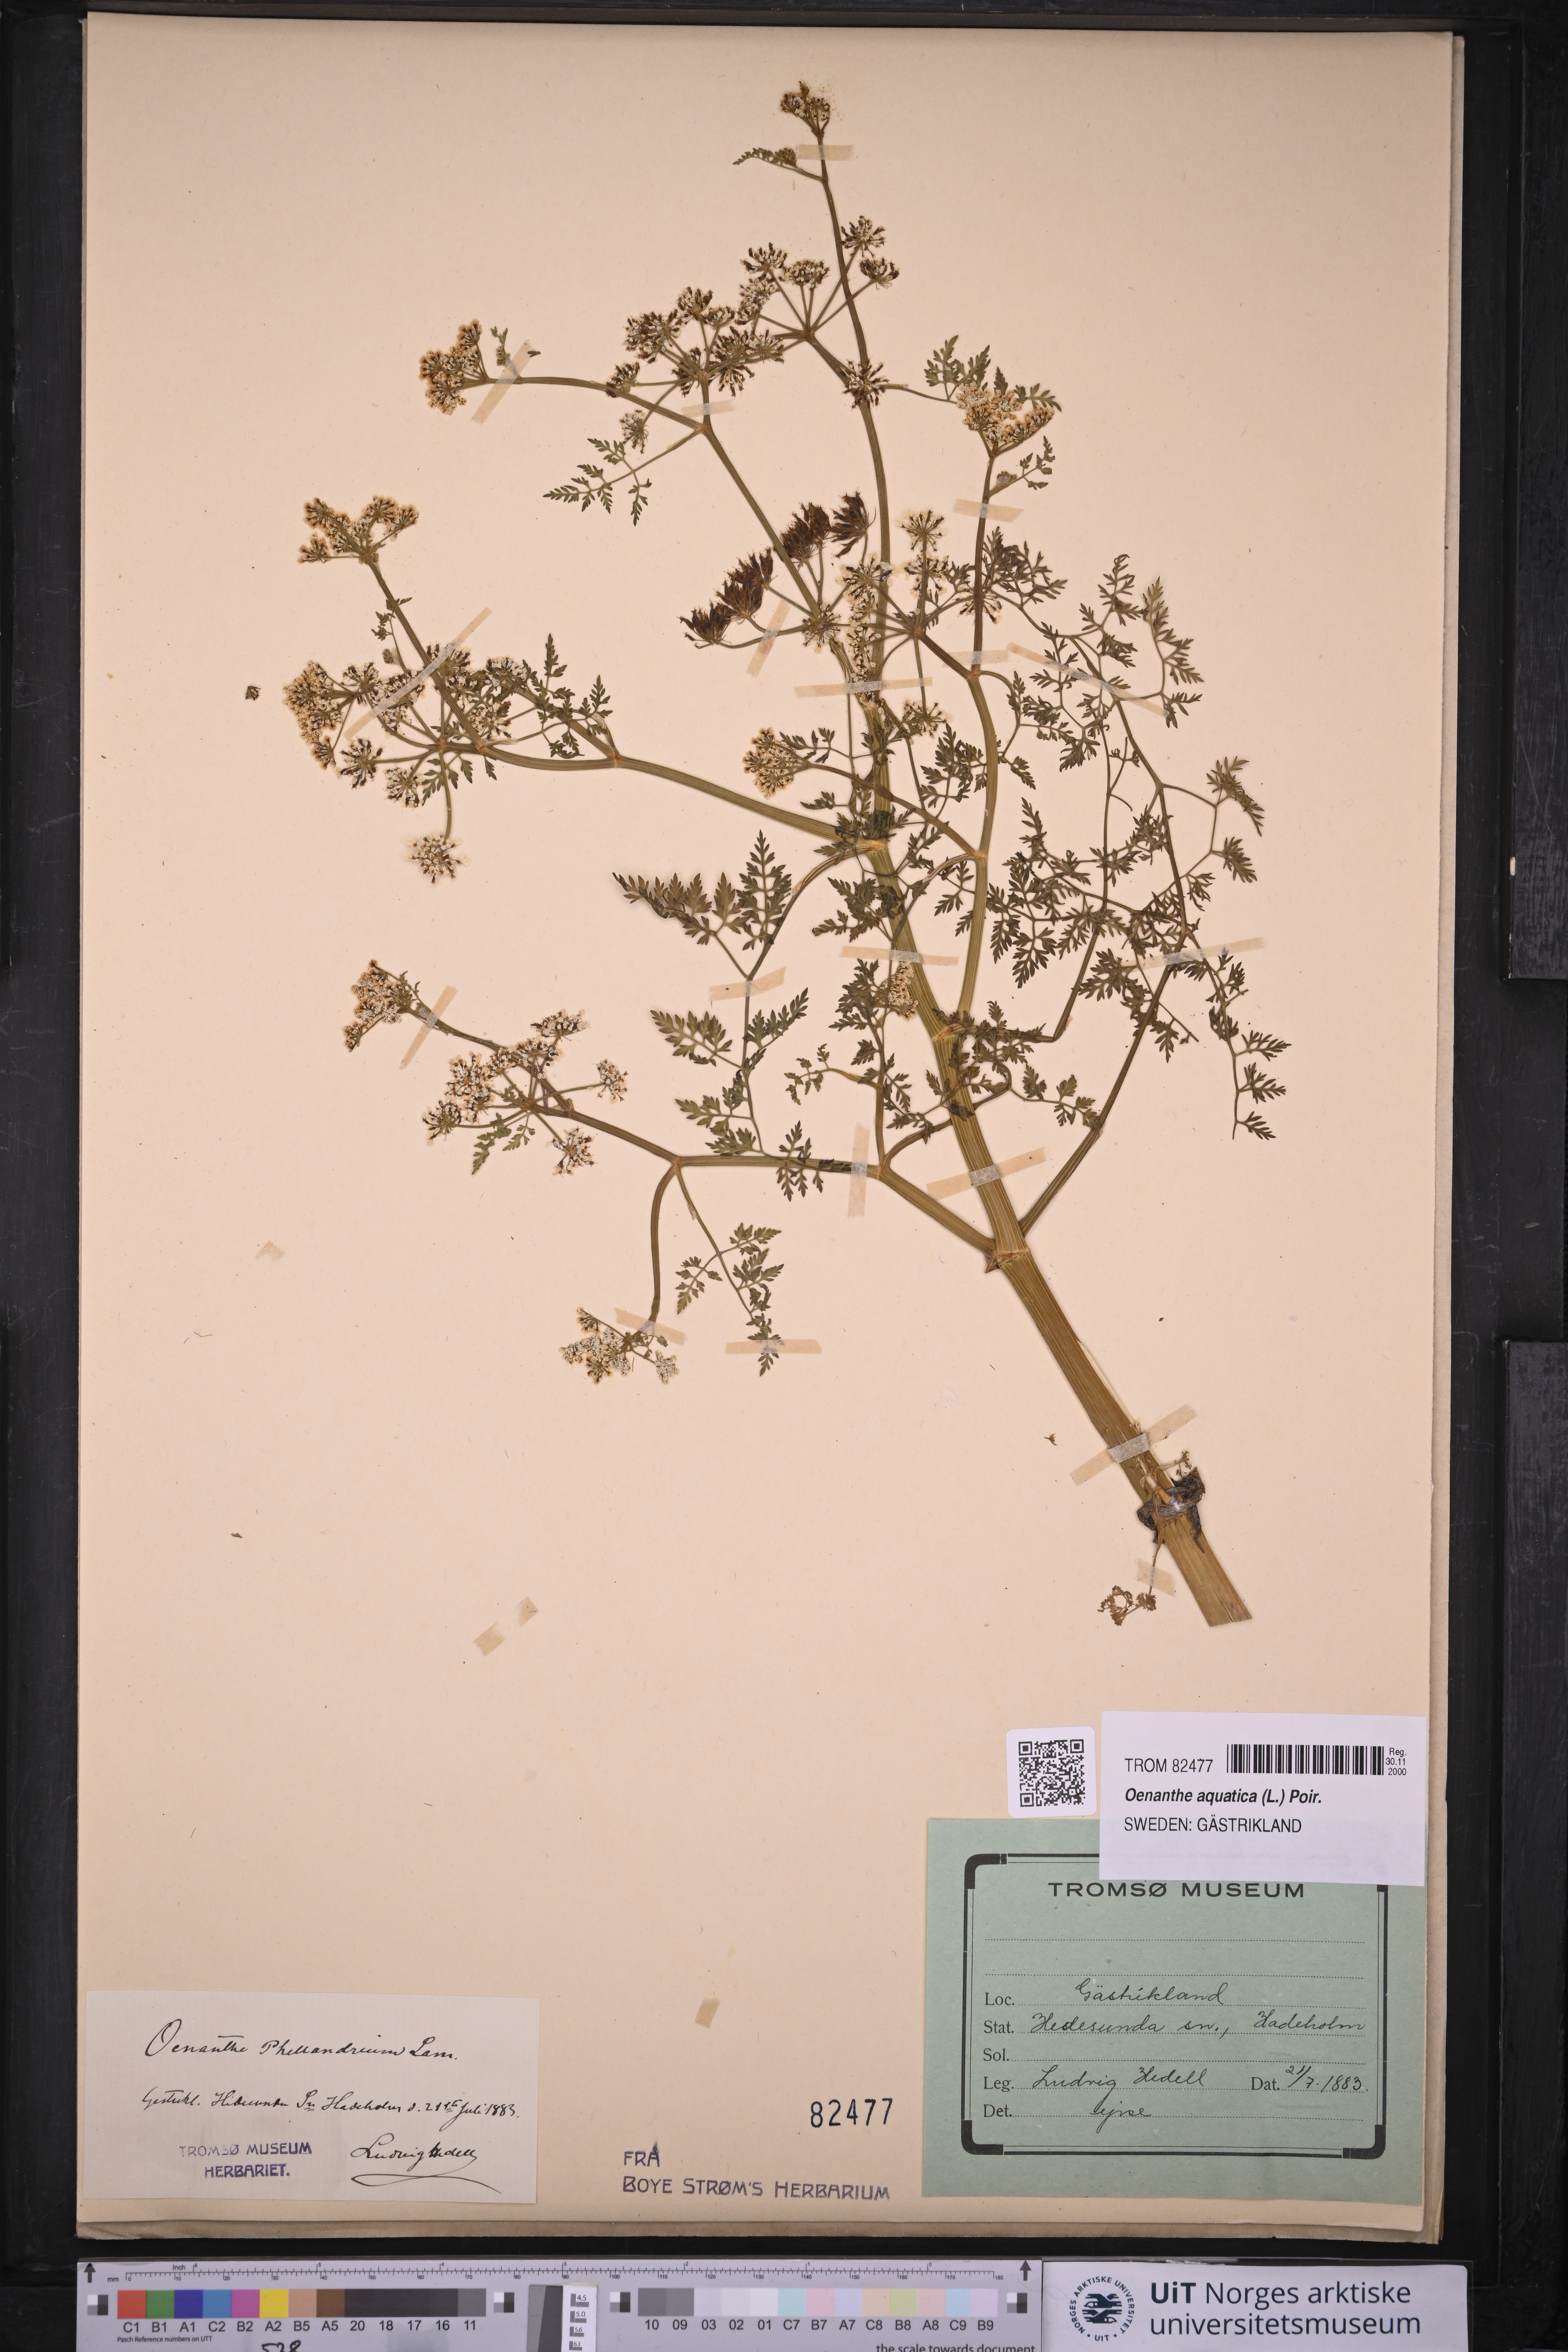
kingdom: Plantae
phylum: Tracheophyta
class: Magnoliopsida
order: Apiales
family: Apiaceae
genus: Oenanthe
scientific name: Oenanthe aquatica
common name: Fine-leaved water-dropwort
